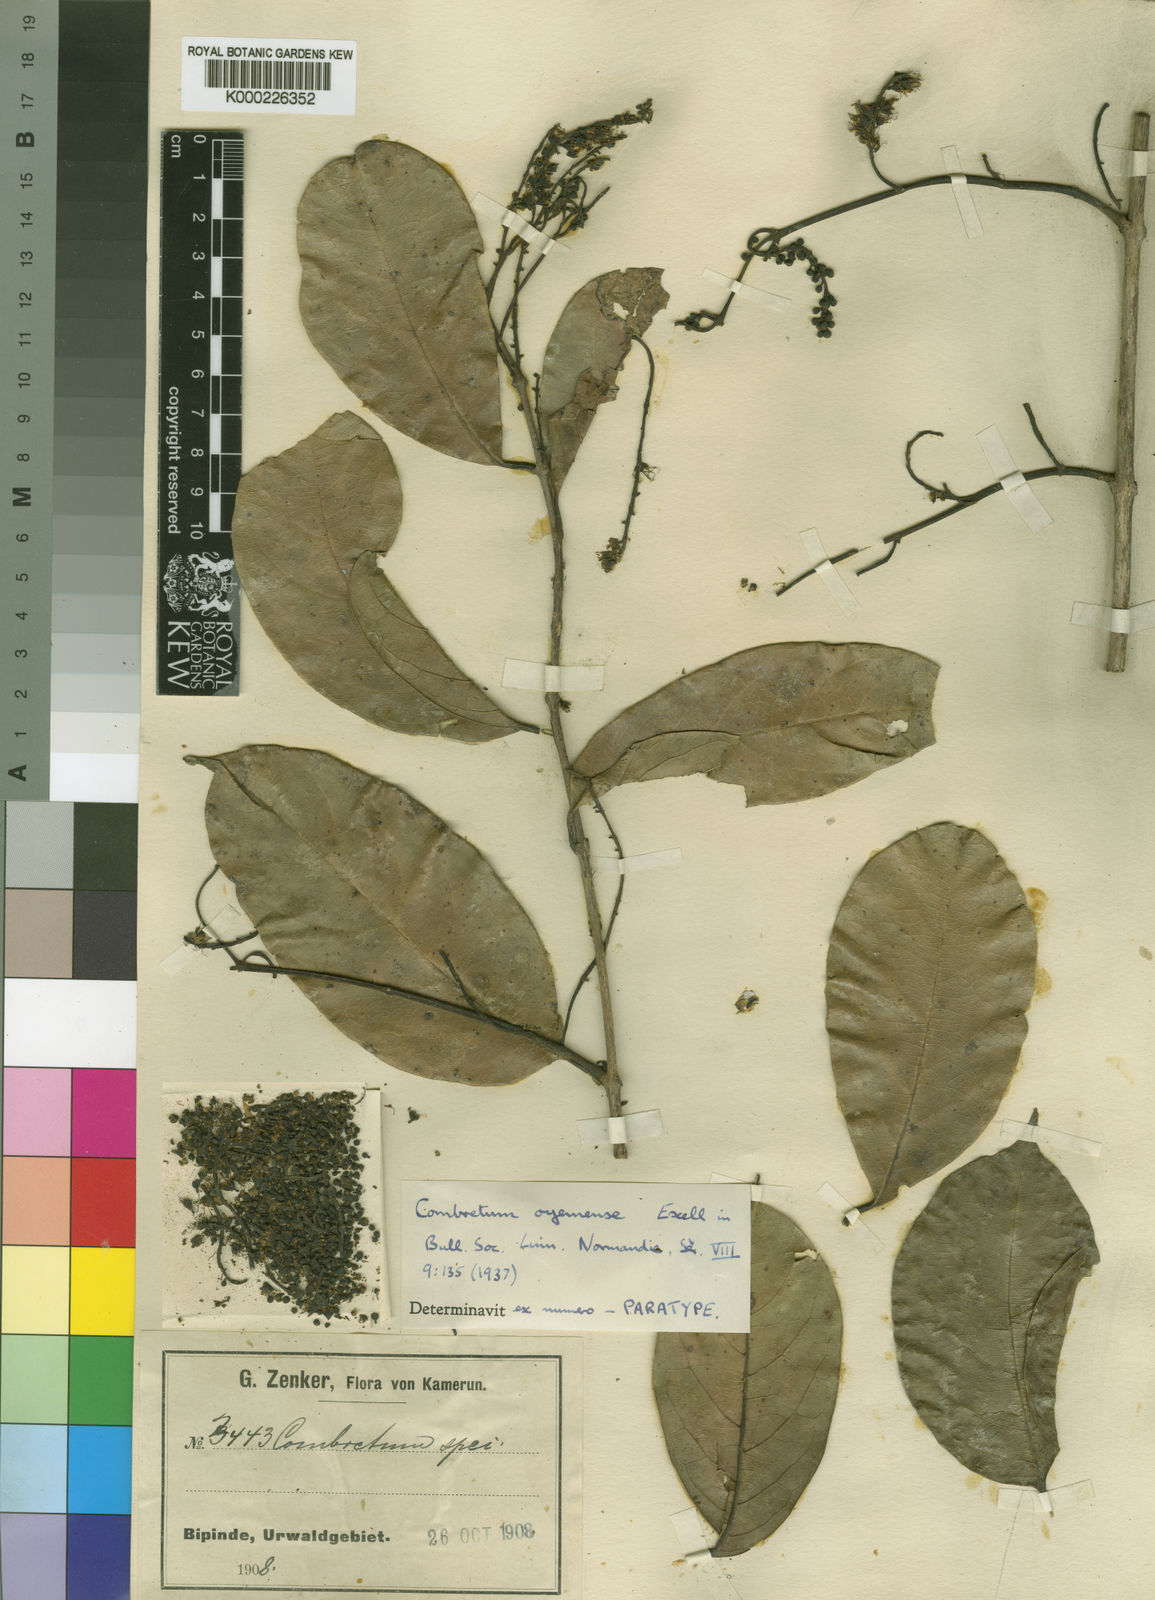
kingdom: Plantae
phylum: Tracheophyta
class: Magnoliopsida
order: Myrtales
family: Combretaceae
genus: Combretum
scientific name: Combretum oyemense
